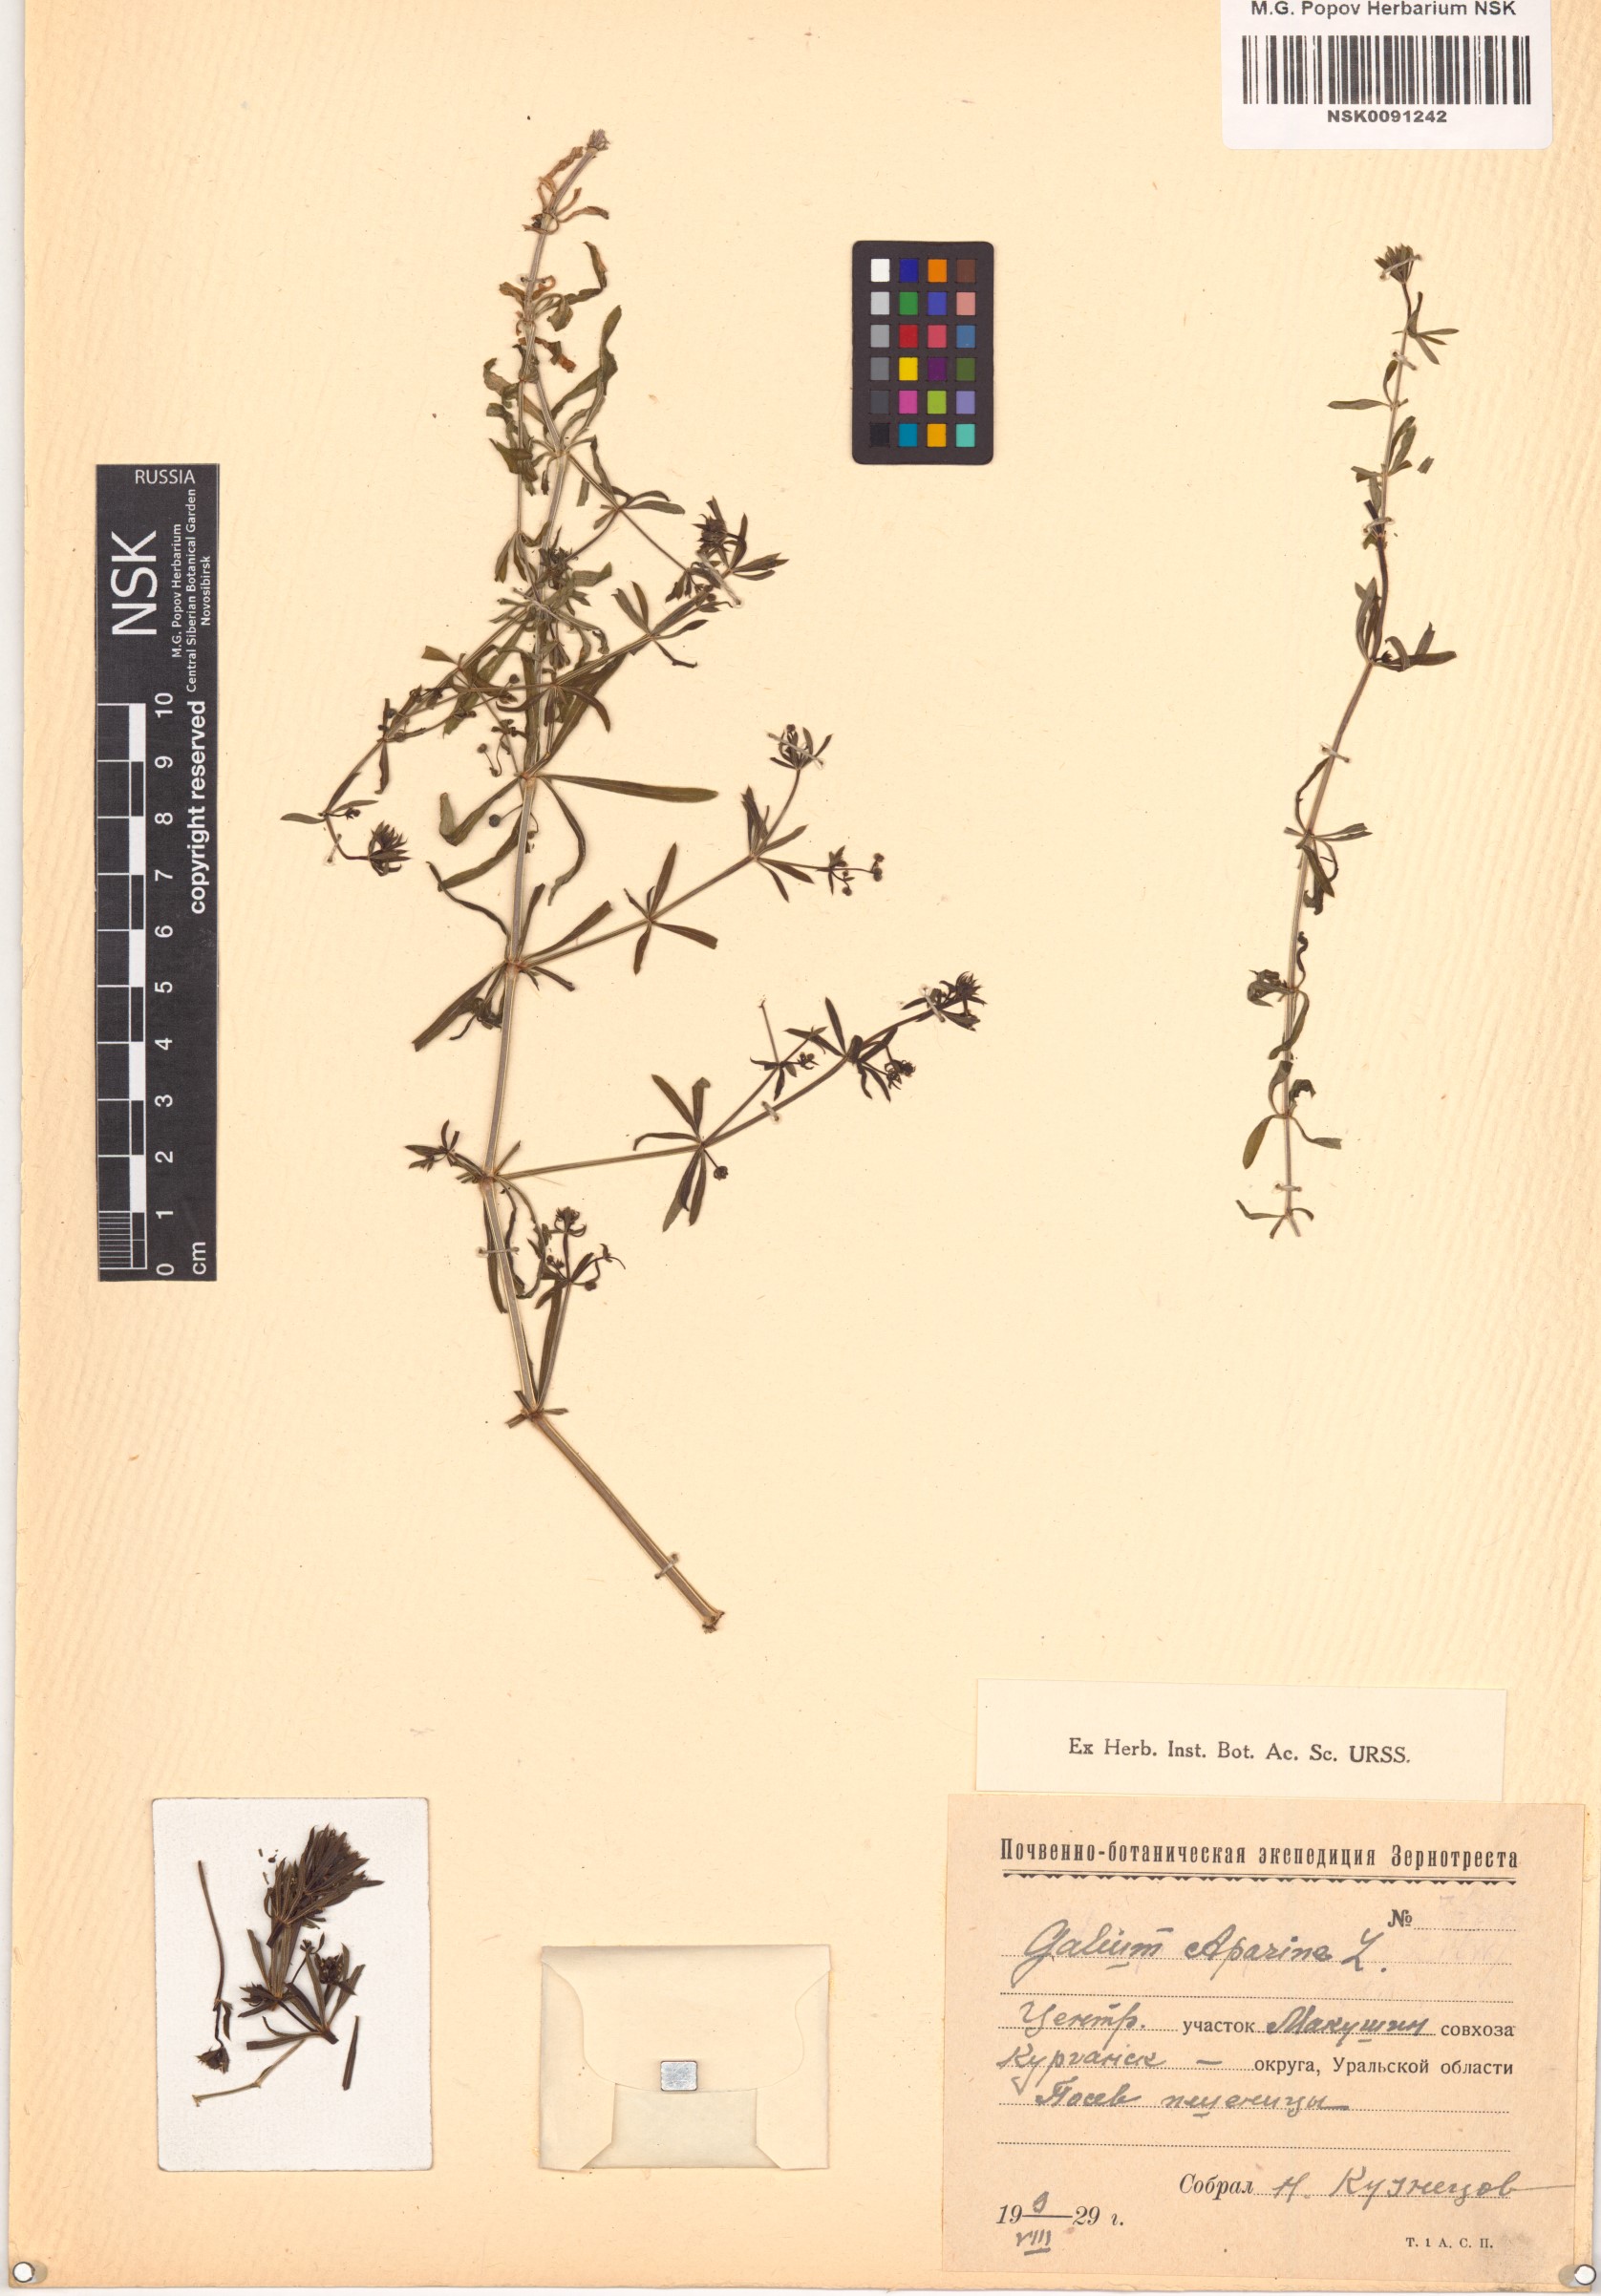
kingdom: Plantae
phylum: Tracheophyta
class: Magnoliopsida
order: Gentianales
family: Rubiaceae
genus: Galium
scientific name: Galium aparine
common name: Cleavers
